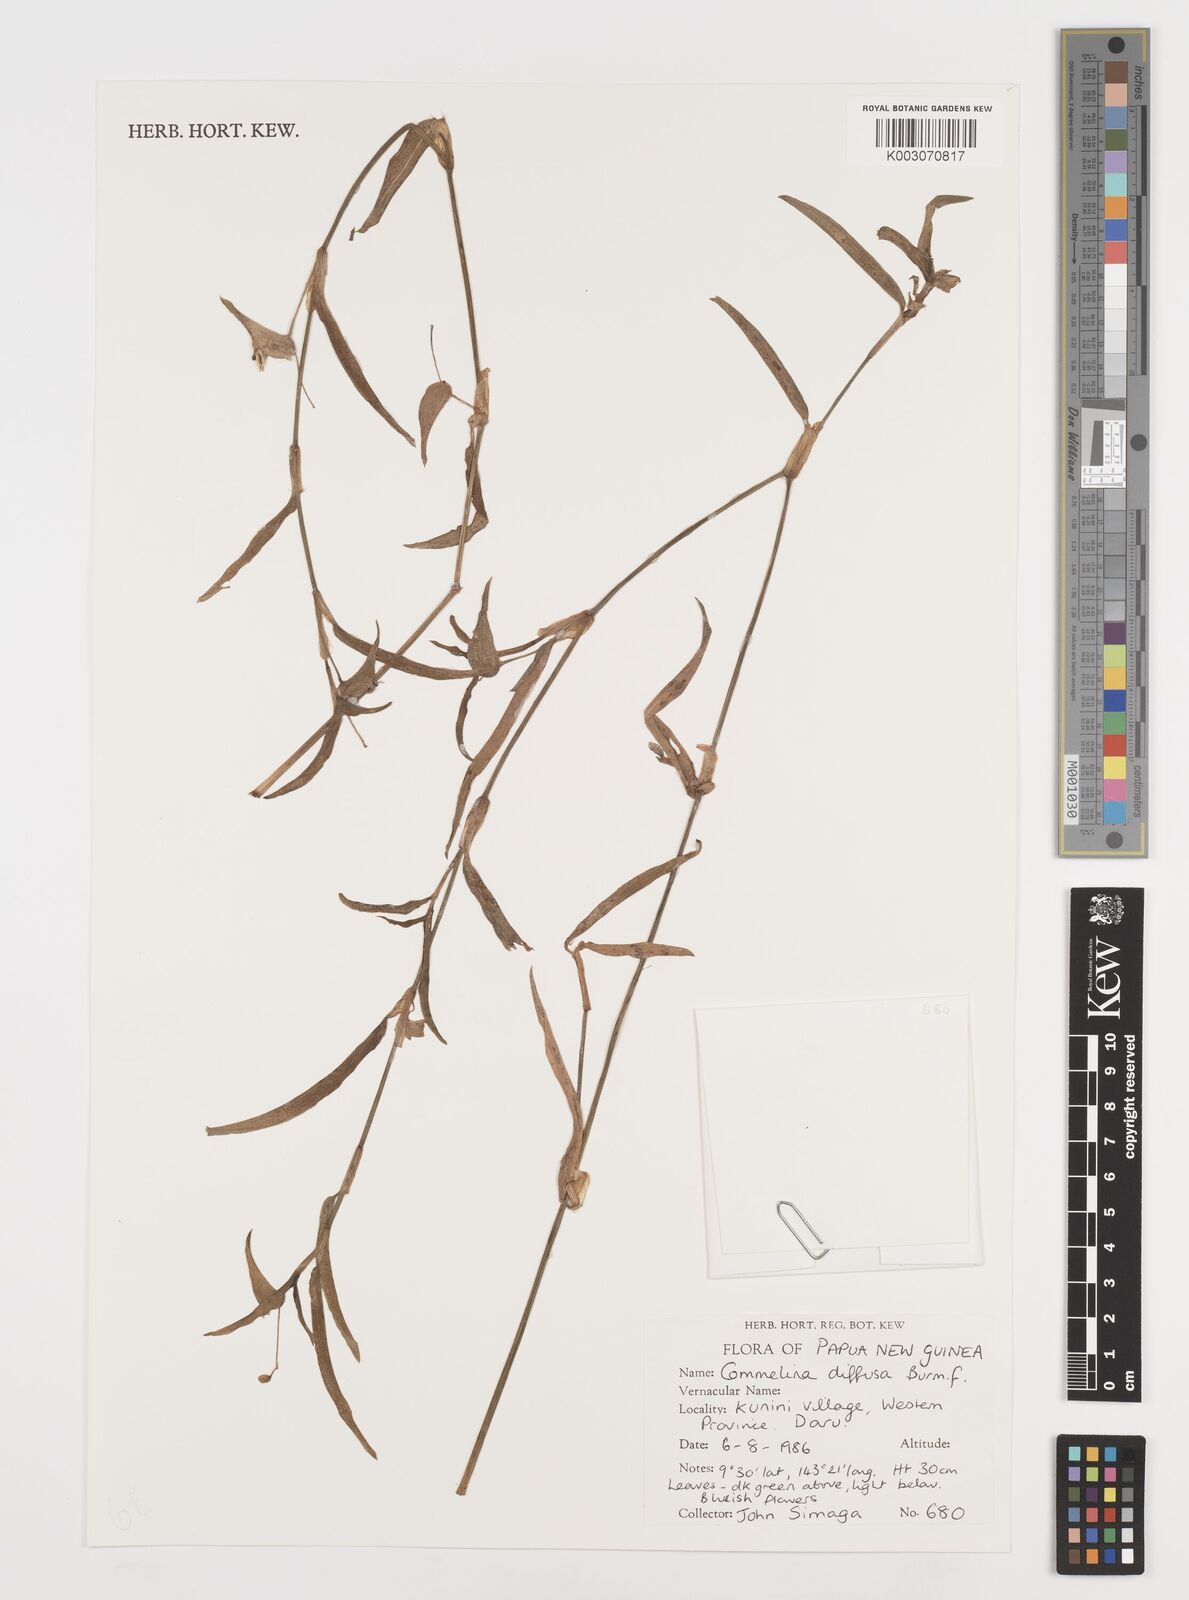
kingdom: Plantae
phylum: Tracheophyta
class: Liliopsida
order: Commelinales
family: Commelinaceae
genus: Murdannia
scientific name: Murdannia nudiflora
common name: Nakedstem dewflower
